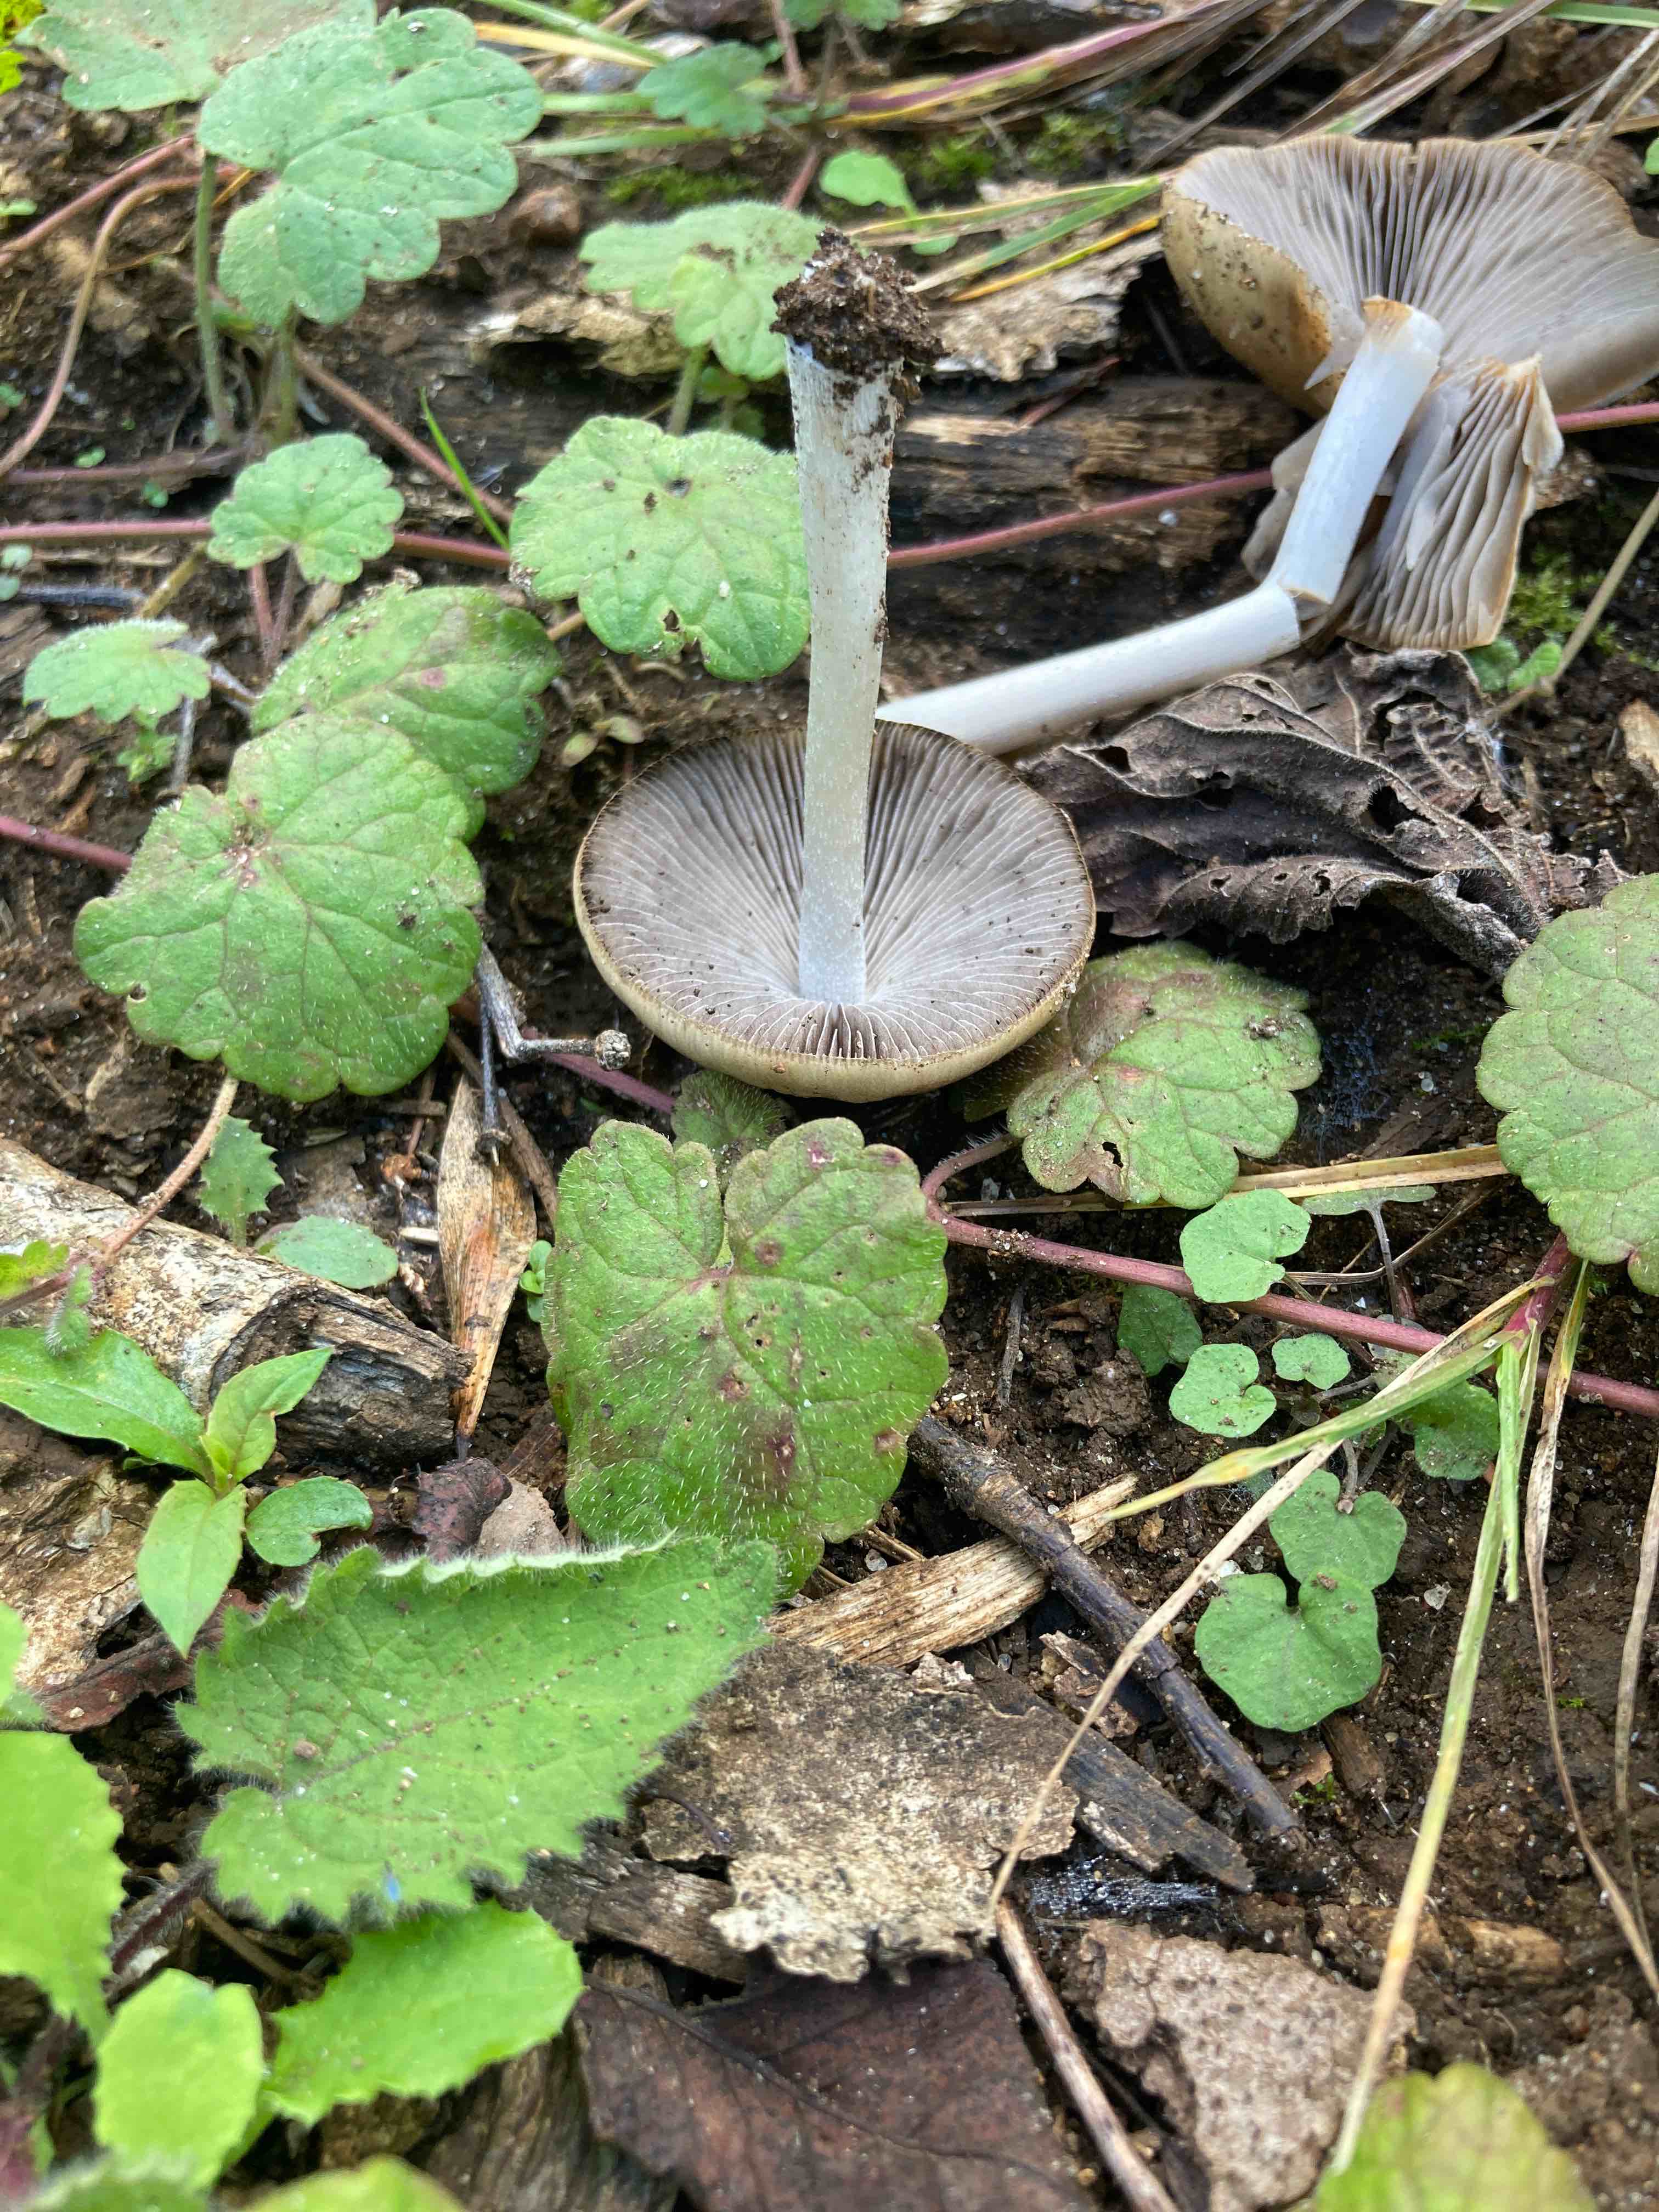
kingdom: Fungi
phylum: Basidiomycota
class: Agaricomycetes
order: Agaricales
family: Psathyrellaceae
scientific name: Psathyrellaceae
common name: mørkhatfamilien
